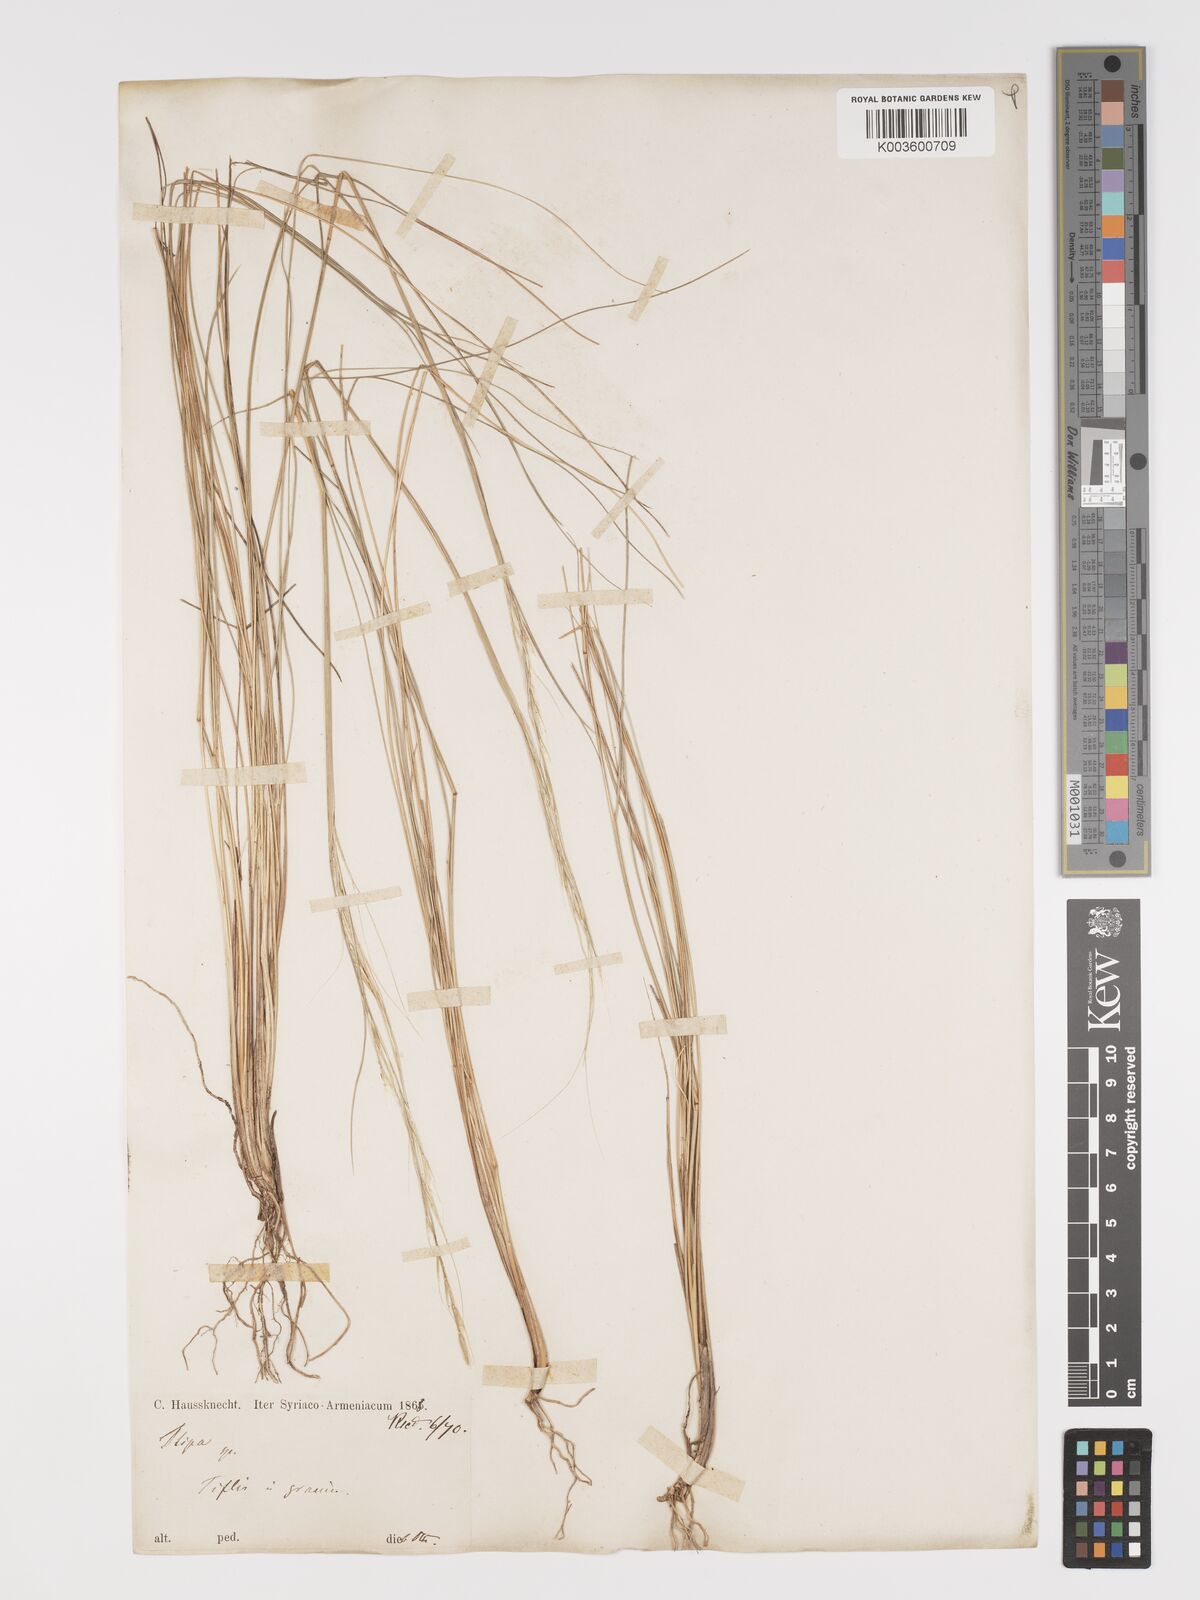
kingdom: Plantae
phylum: Tracheophyta
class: Liliopsida
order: Poales
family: Poaceae
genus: Stipa
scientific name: Stipa holosericea
